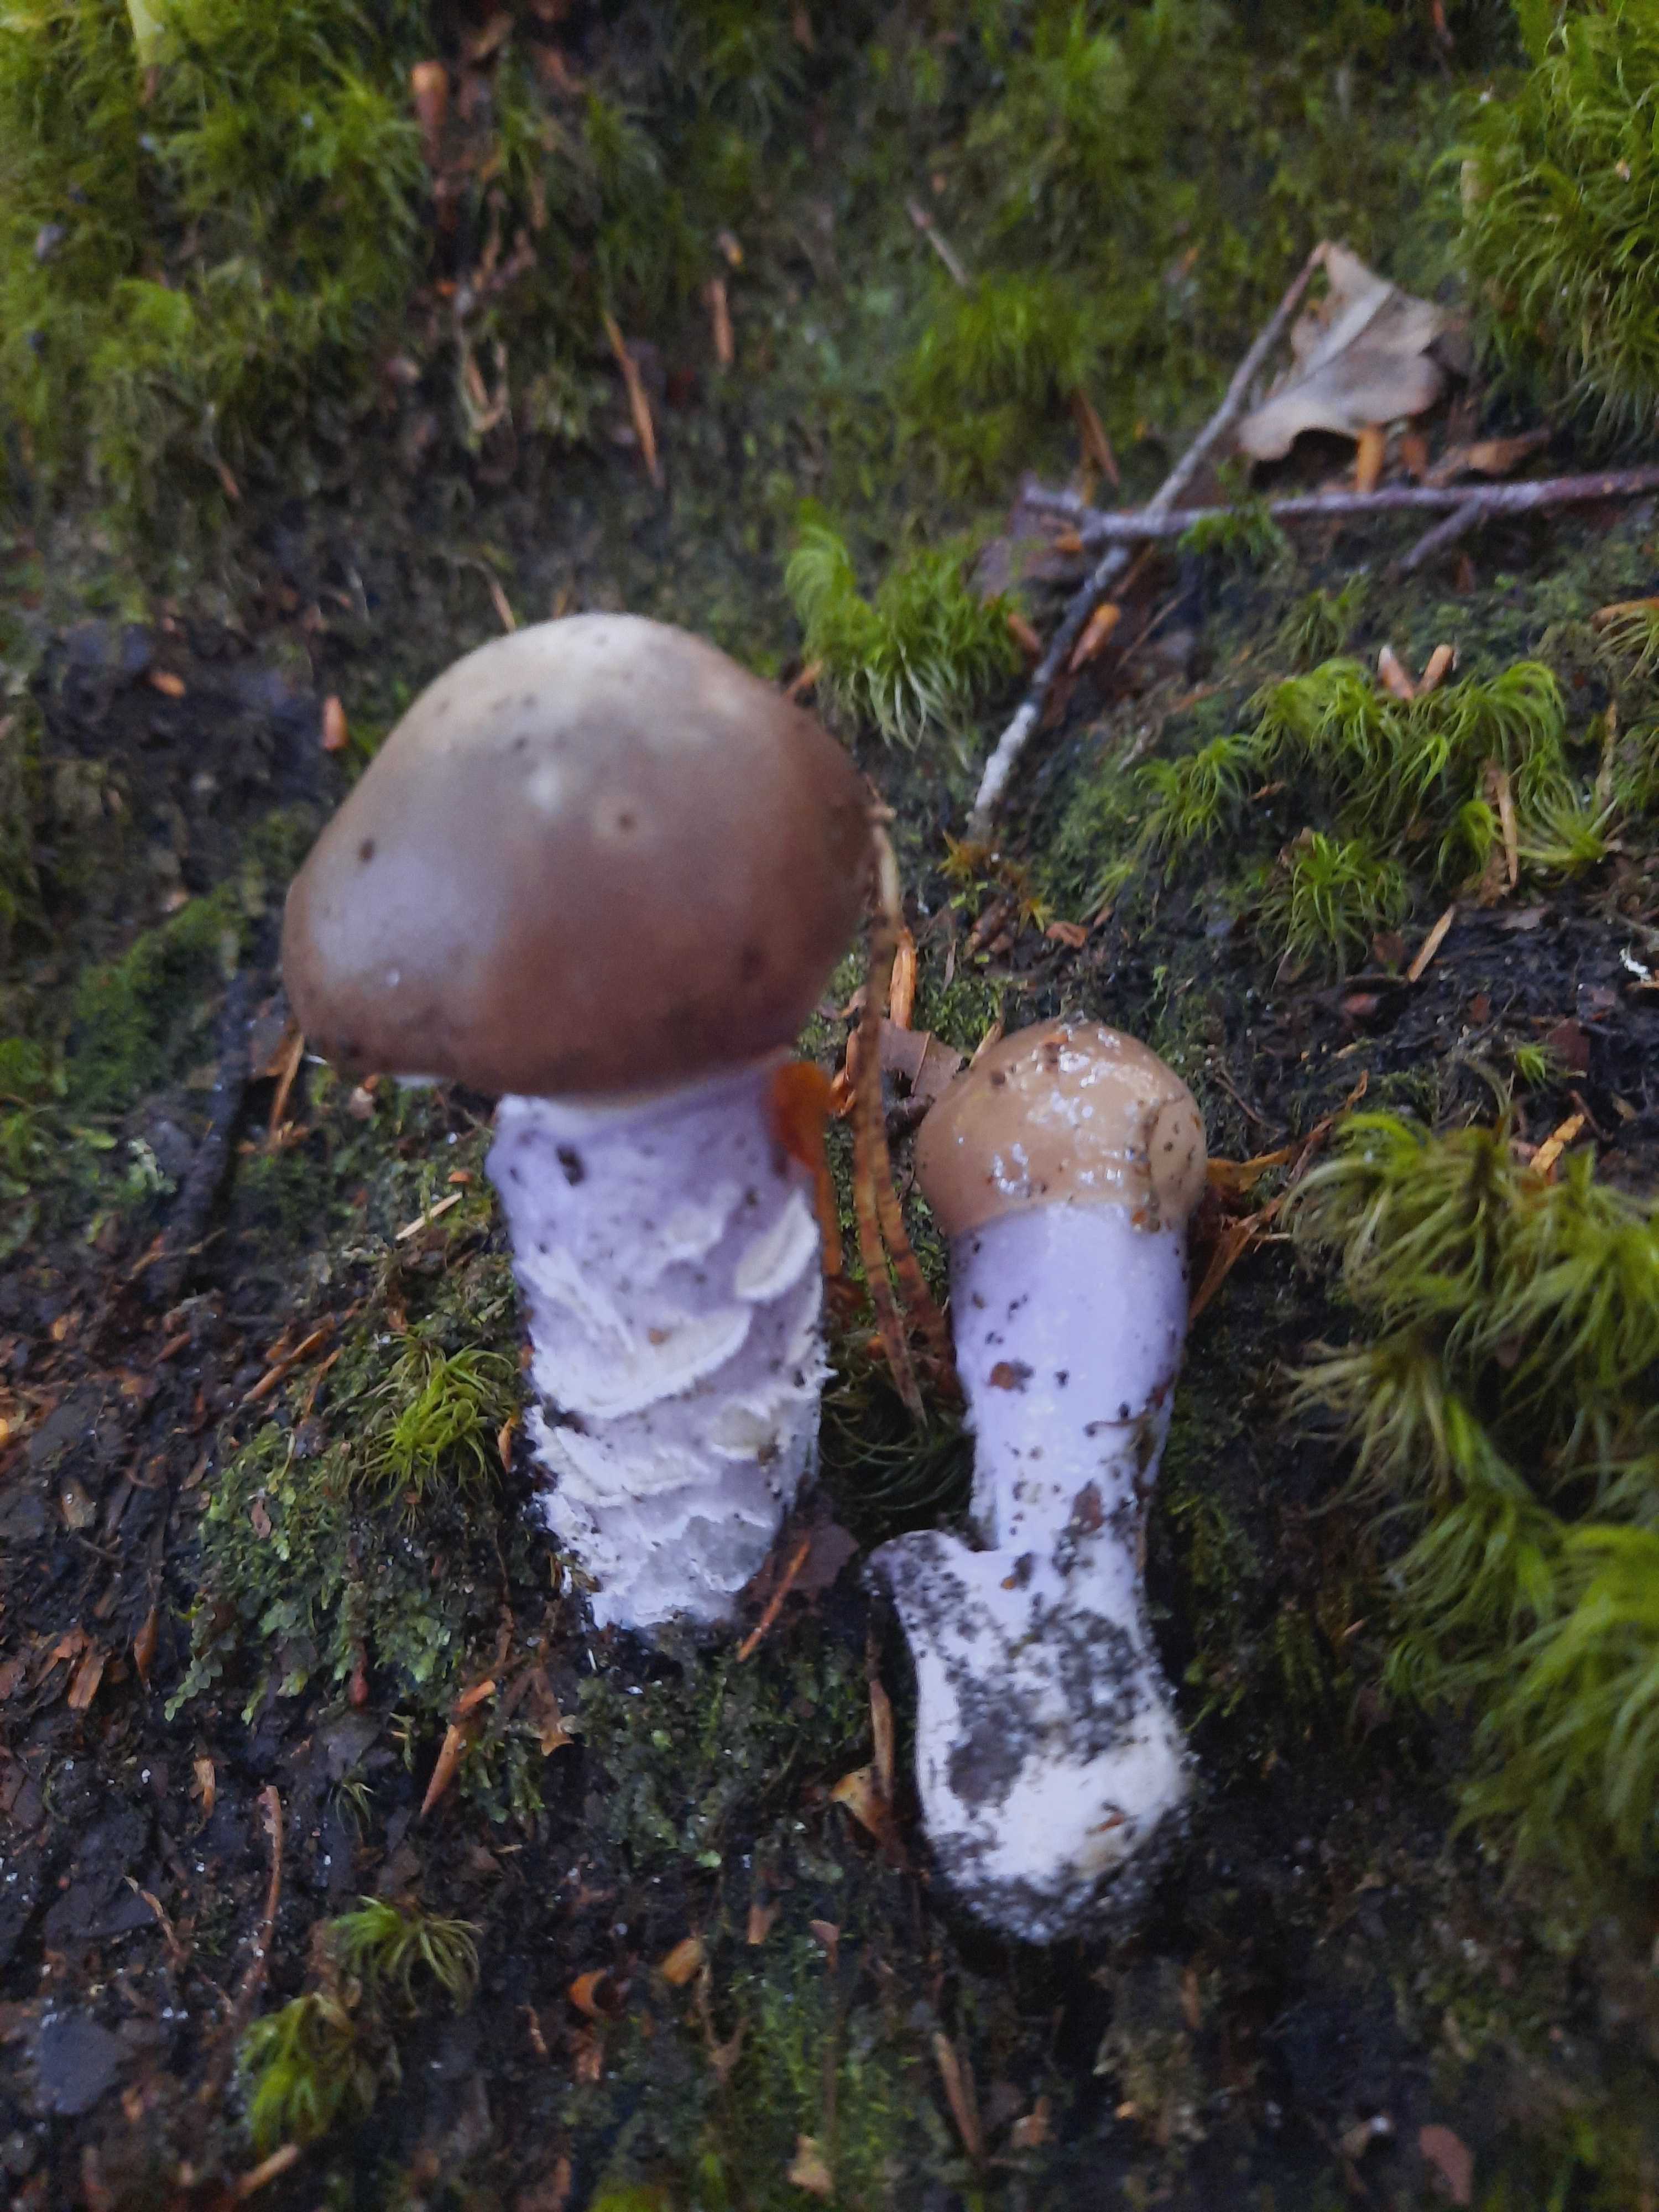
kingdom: Fungi
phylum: Basidiomycota
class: Agaricomycetes
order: Agaricales
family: Cortinariaceae
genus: Cortinarius
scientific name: Cortinarius
